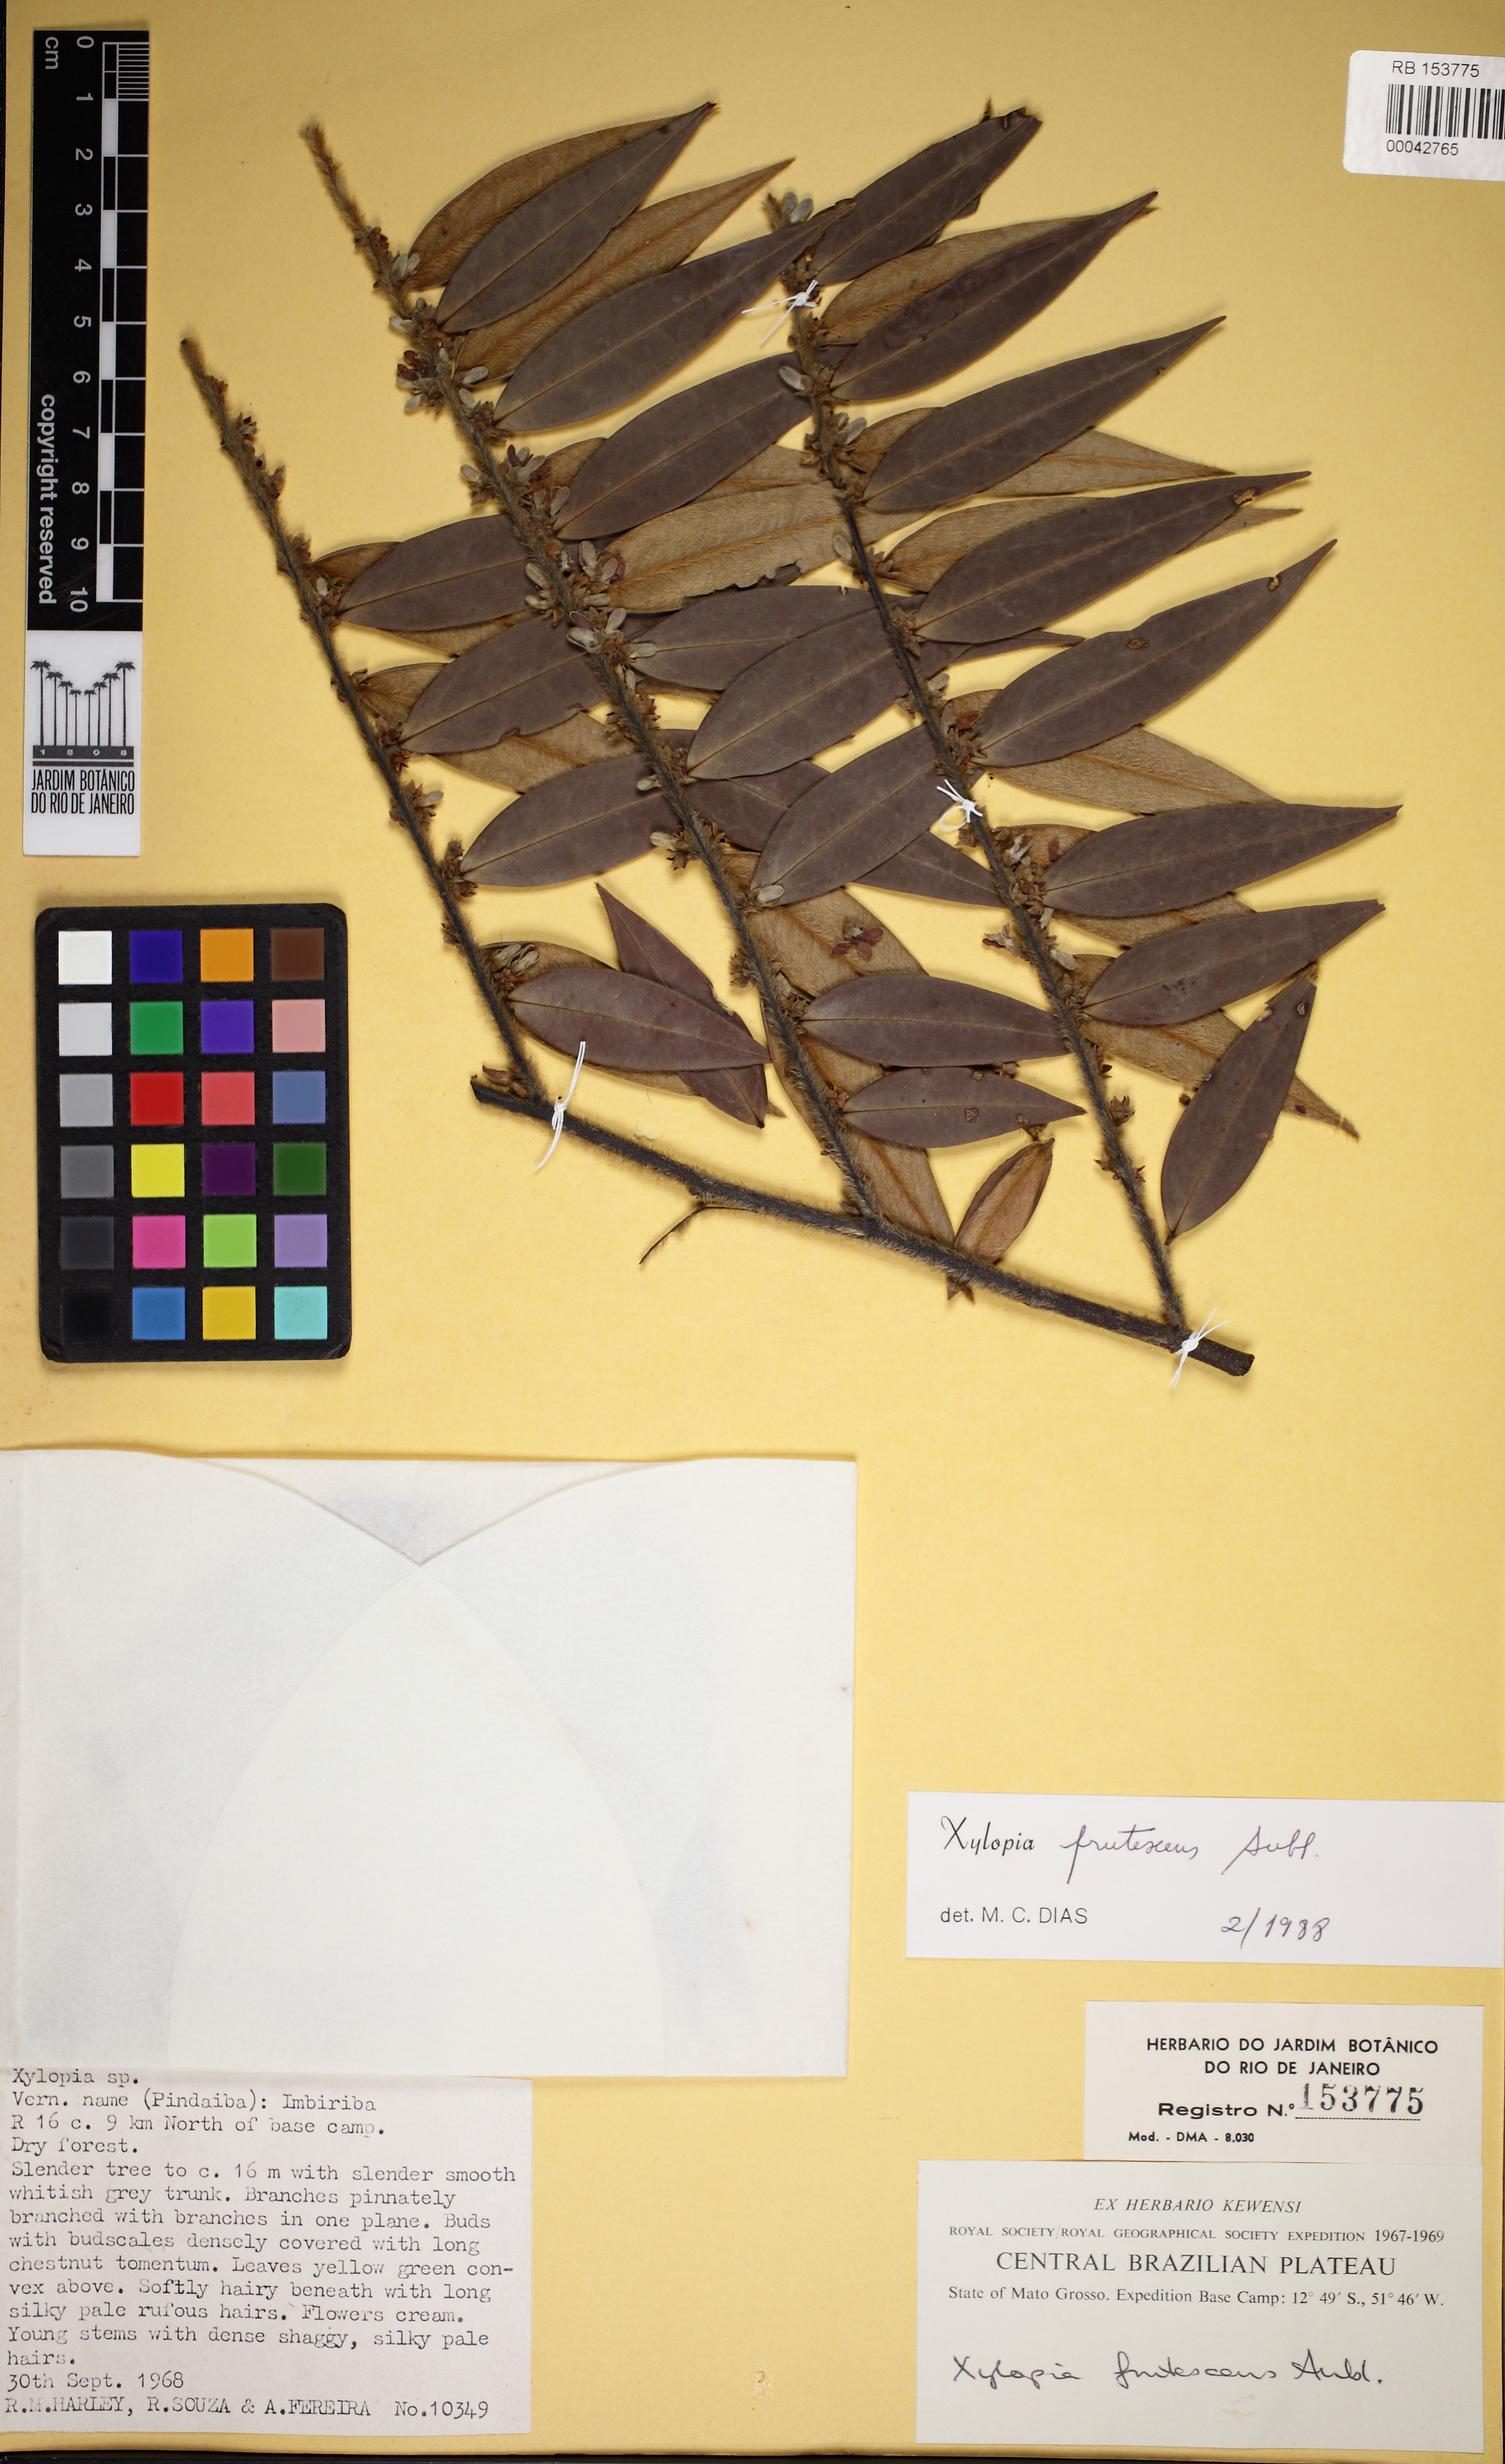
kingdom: Plantae
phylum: Tracheophyta
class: Magnoliopsida
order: Magnoliales
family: Annonaceae
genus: Xylopia
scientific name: Xylopia frutescens
